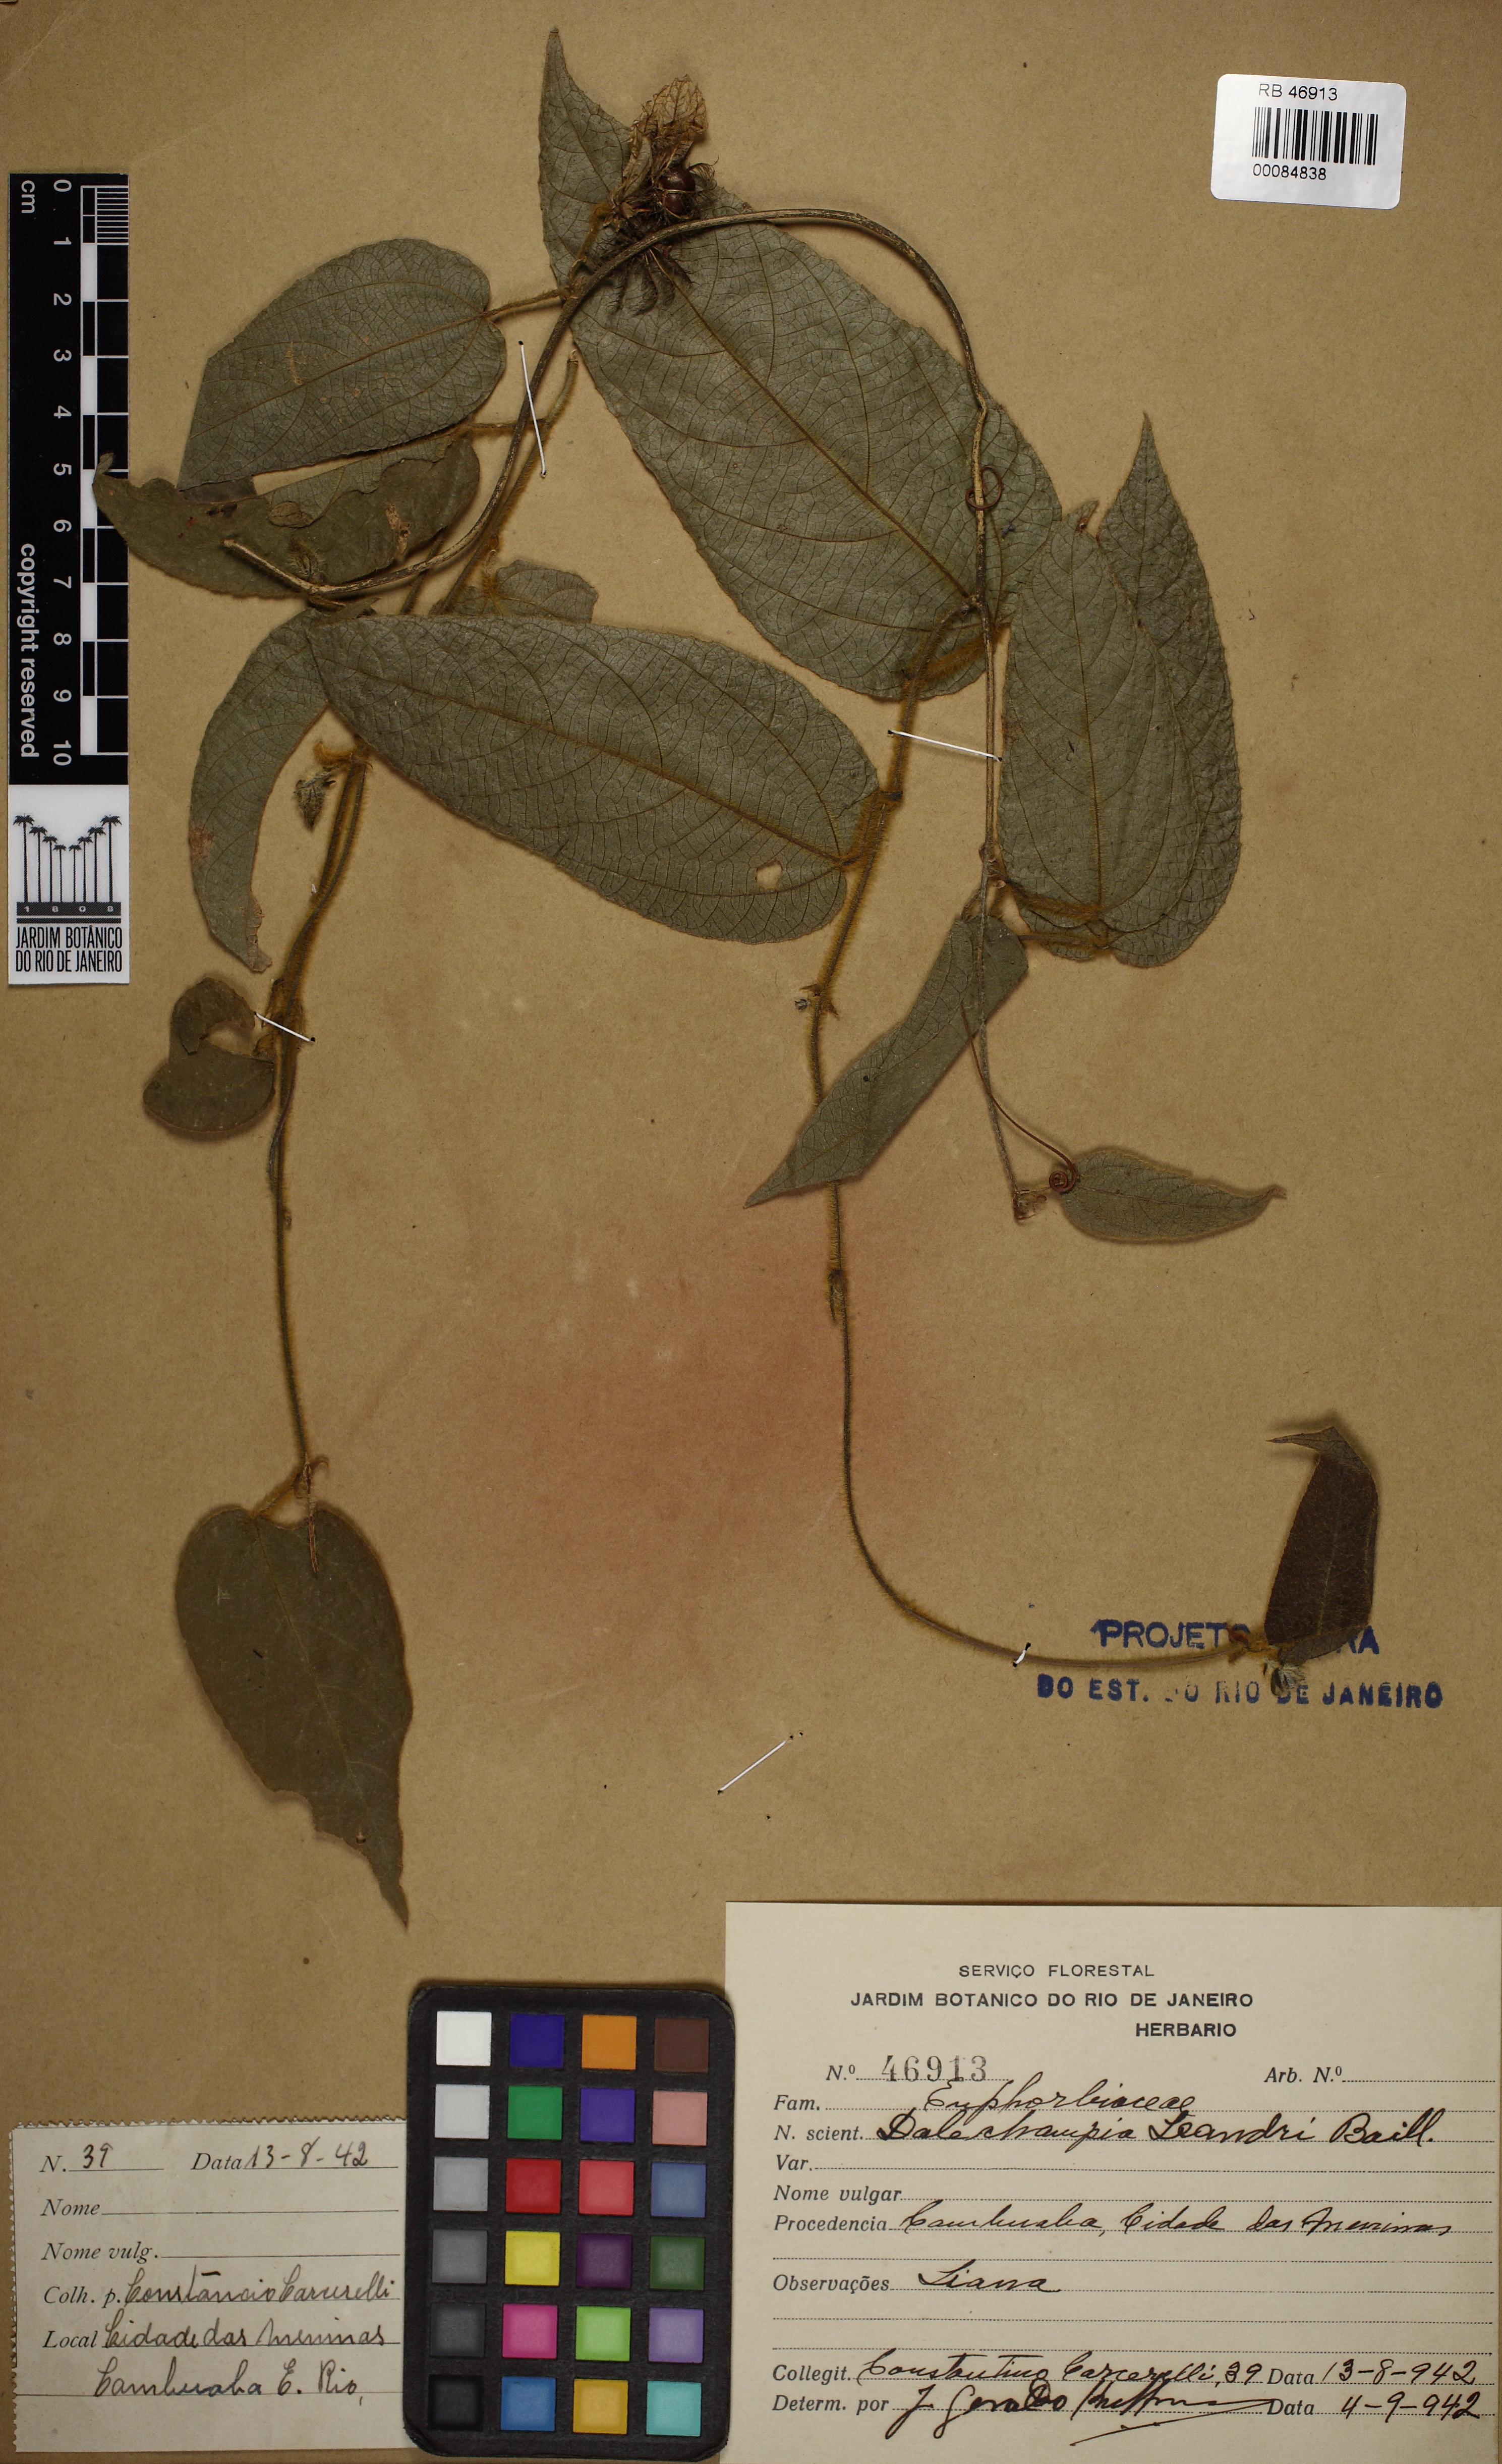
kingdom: Plantae
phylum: Tracheophyta
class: Magnoliopsida
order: Malpighiales
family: Euphorbiaceae
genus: Dalechampia
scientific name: Dalechampia leandrii
